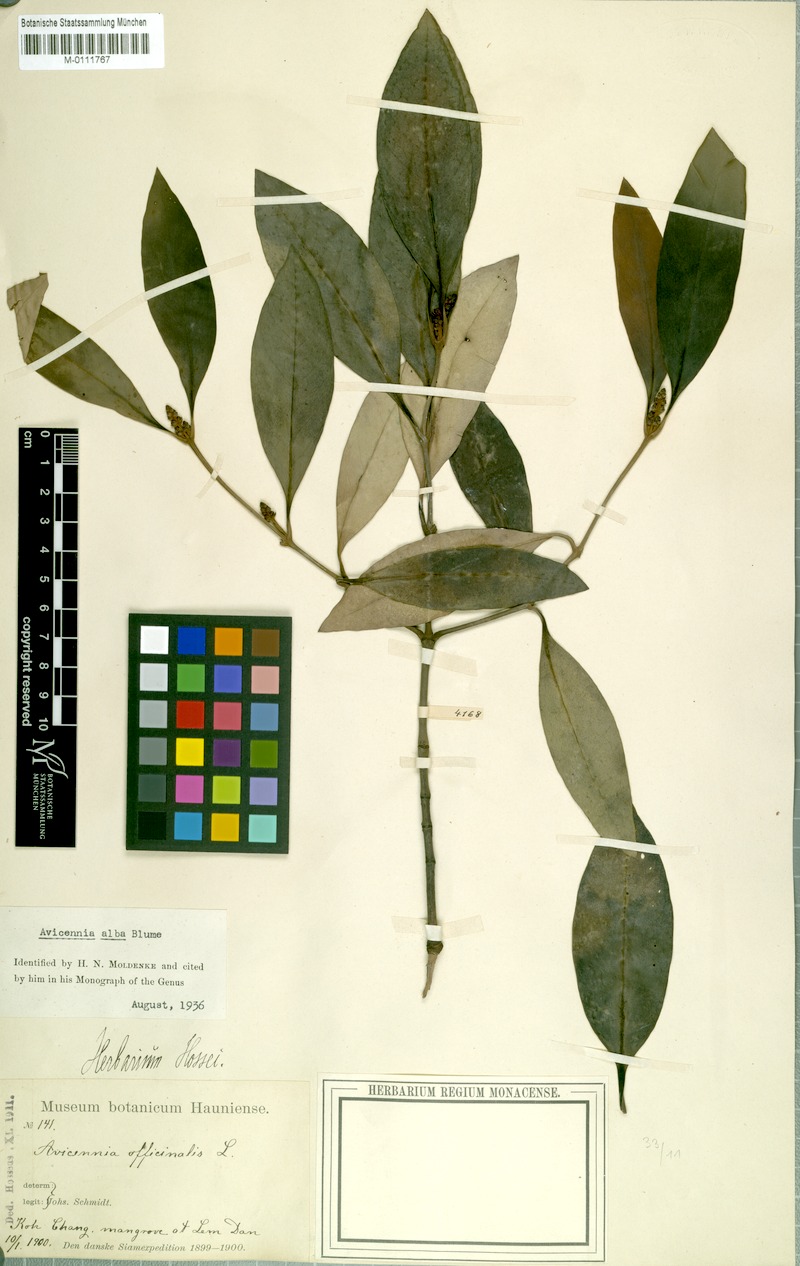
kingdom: Plantae
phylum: Tracheophyta
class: Magnoliopsida
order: Lamiales
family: Acanthaceae
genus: Avicennia
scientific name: Avicennia marina
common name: Gray mangrove
